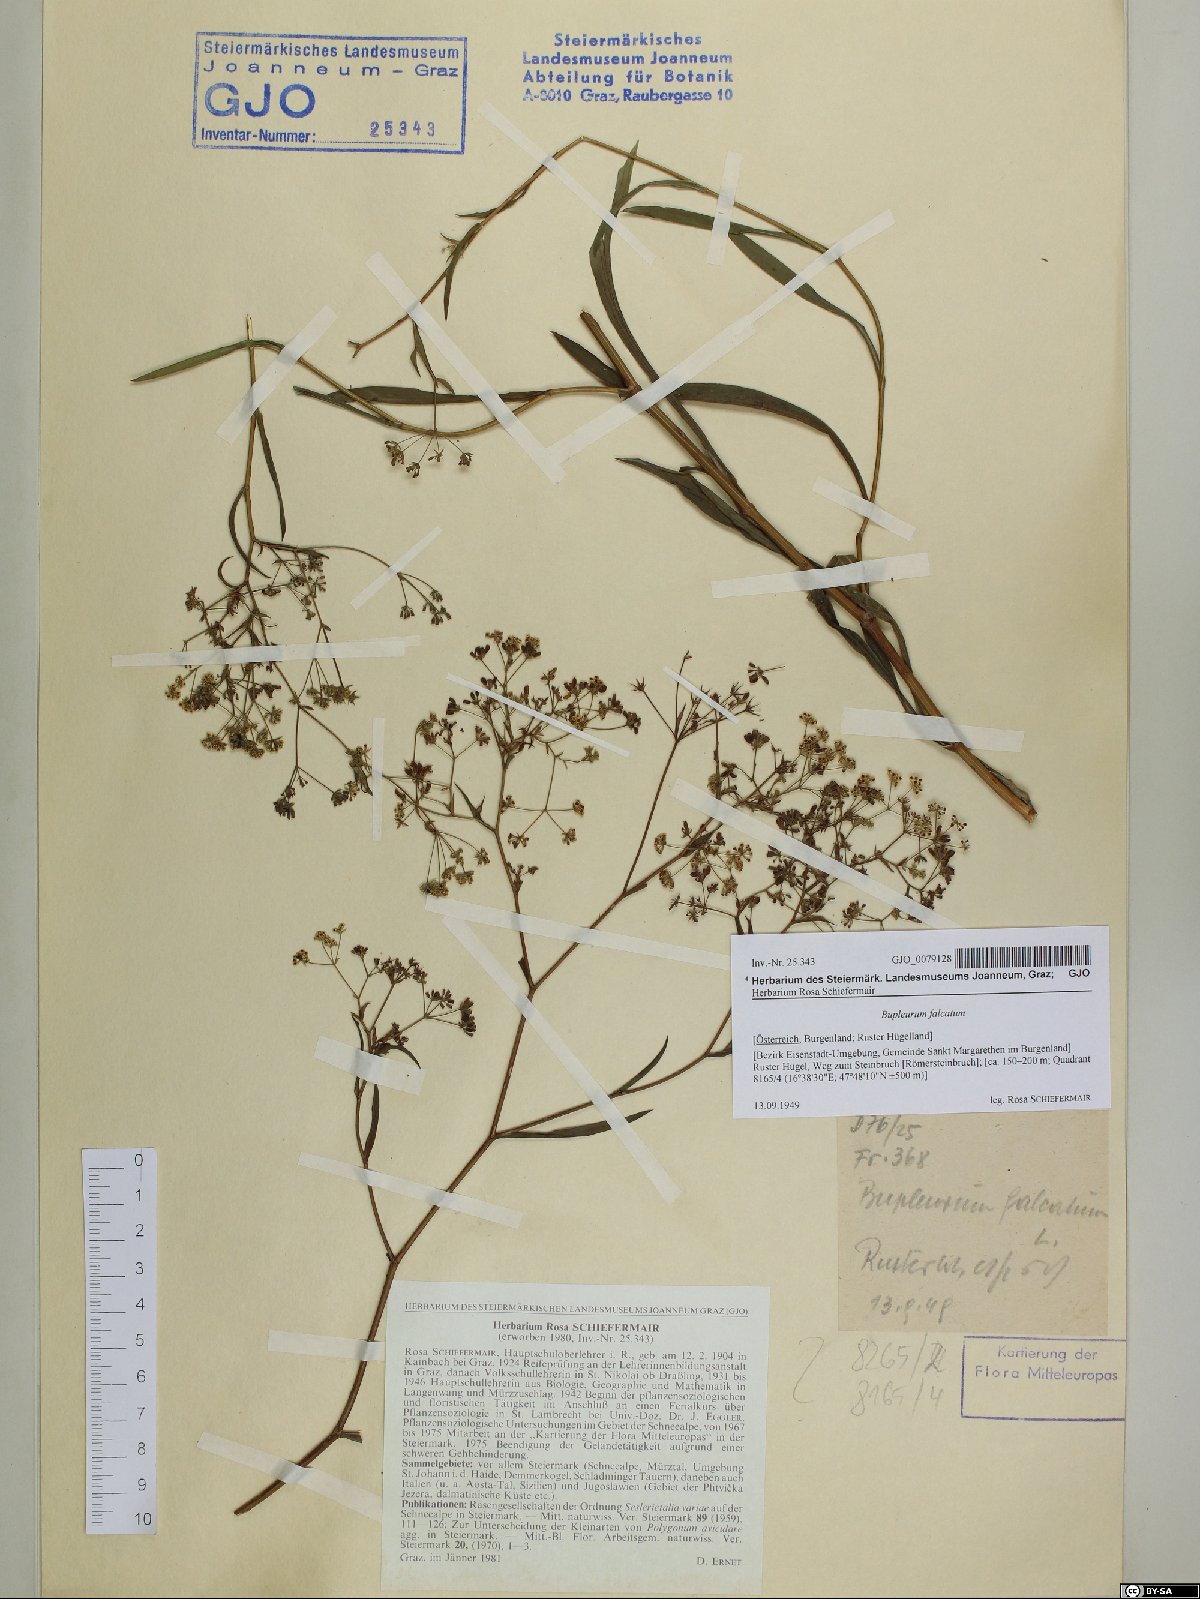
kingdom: Plantae
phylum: Tracheophyta
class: Magnoliopsida
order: Apiales
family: Apiaceae
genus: Bupleurum
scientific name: Bupleurum falcatum
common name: Sickle-leaved hare's-ear
